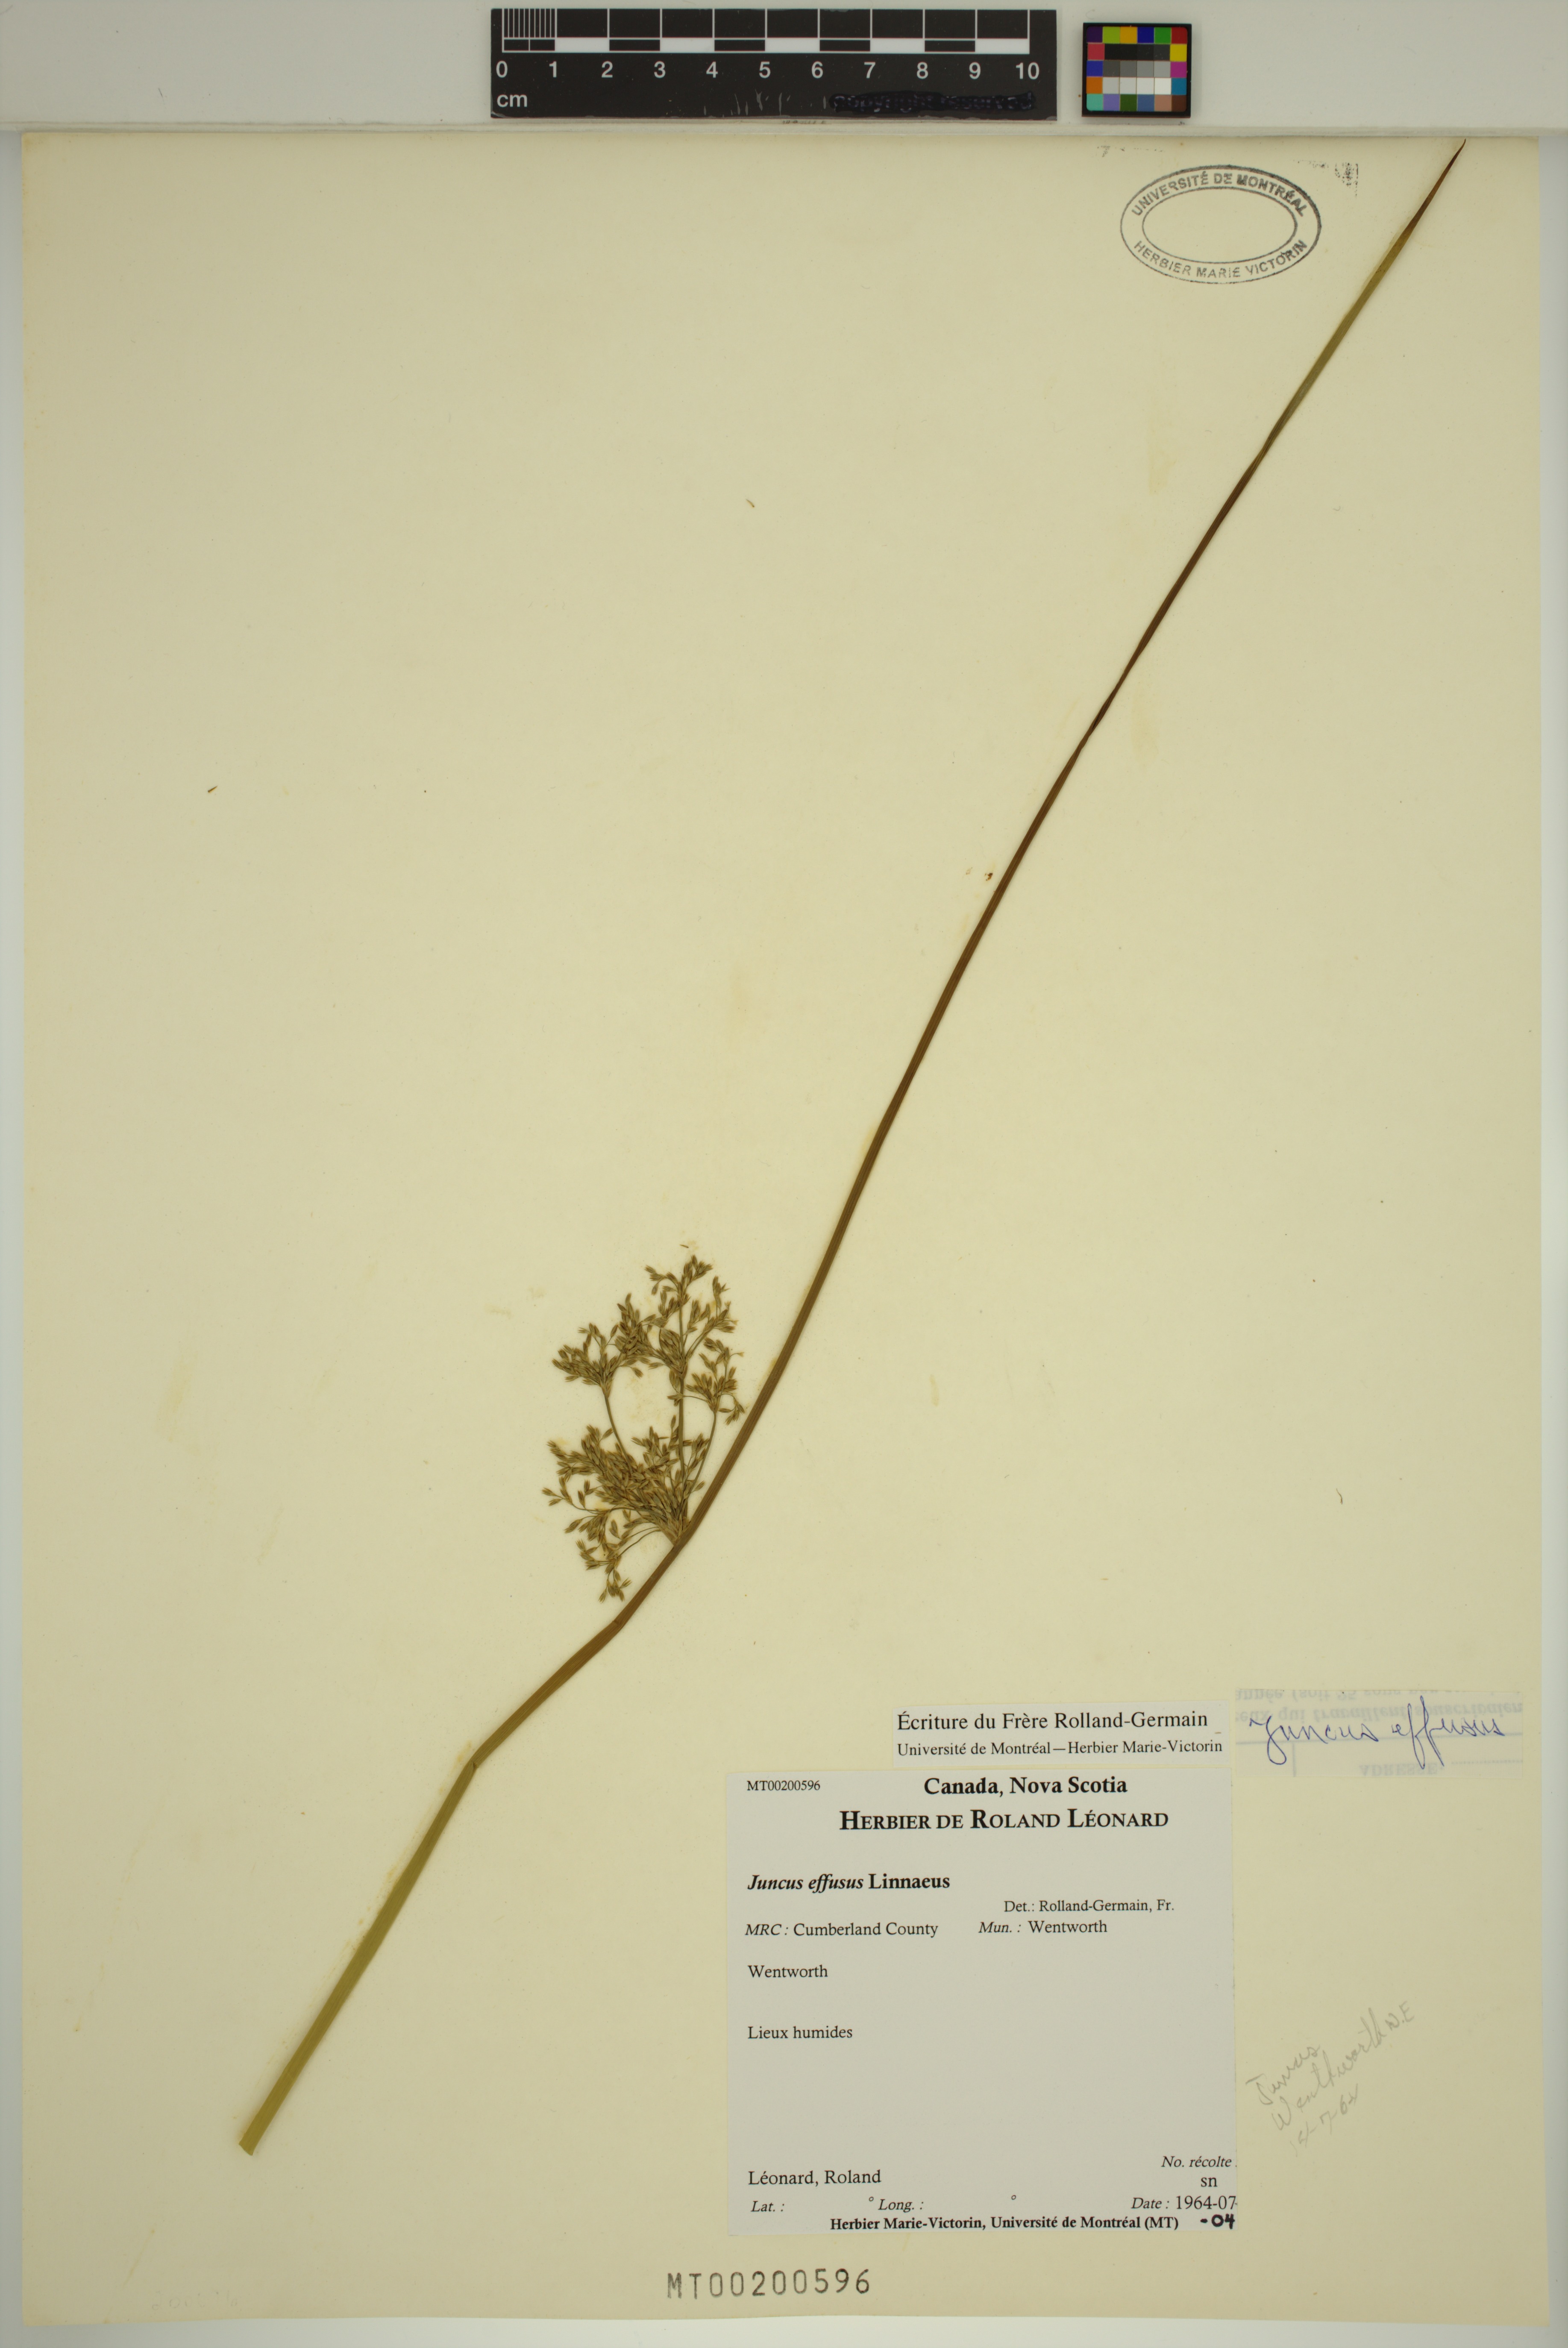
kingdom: Plantae
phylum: Tracheophyta
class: Liliopsida
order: Poales
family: Juncaceae
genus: Juncus
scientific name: Juncus effusus
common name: Soft rush
